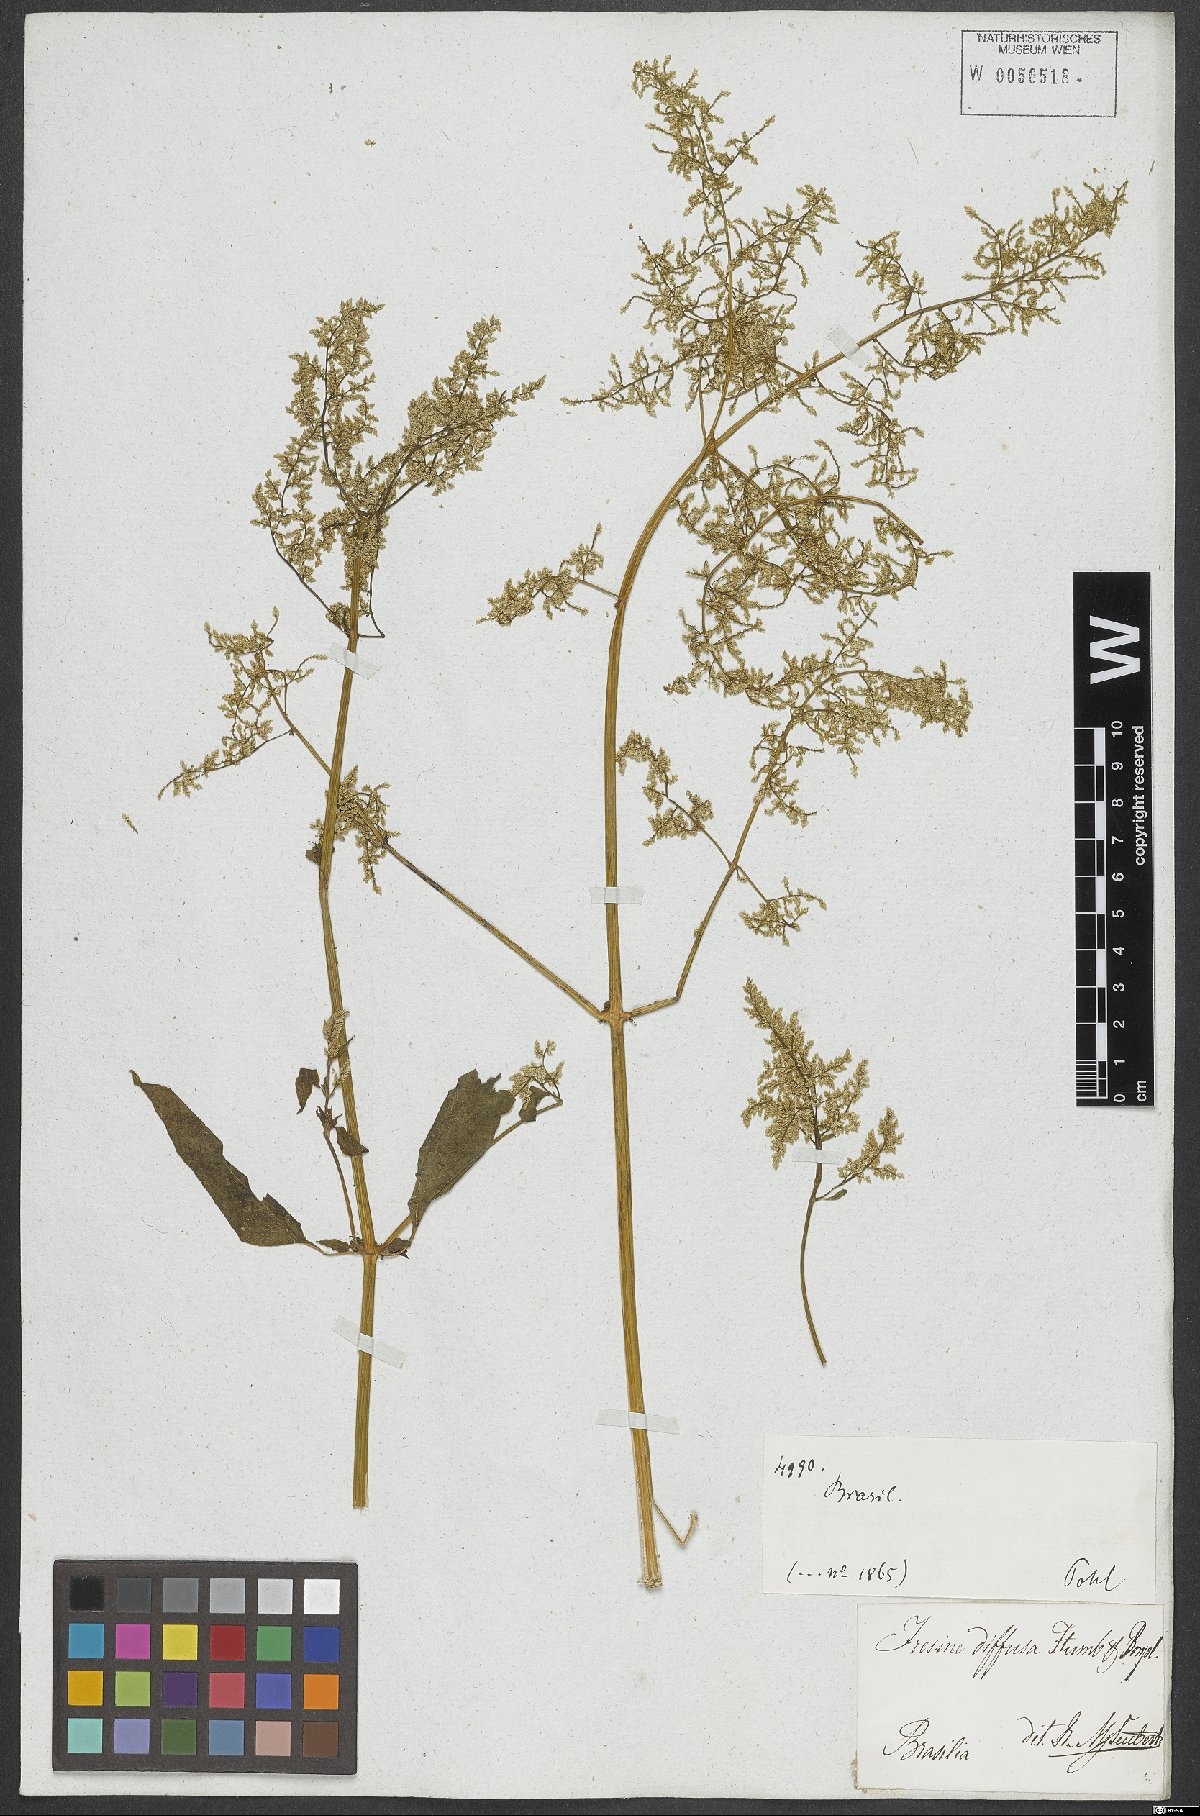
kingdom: Plantae
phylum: Tracheophyta
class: Magnoliopsida
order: Caryophyllales
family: Amaranthaceae
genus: Iresine
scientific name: Iresine diffusa
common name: Juba's-bush
